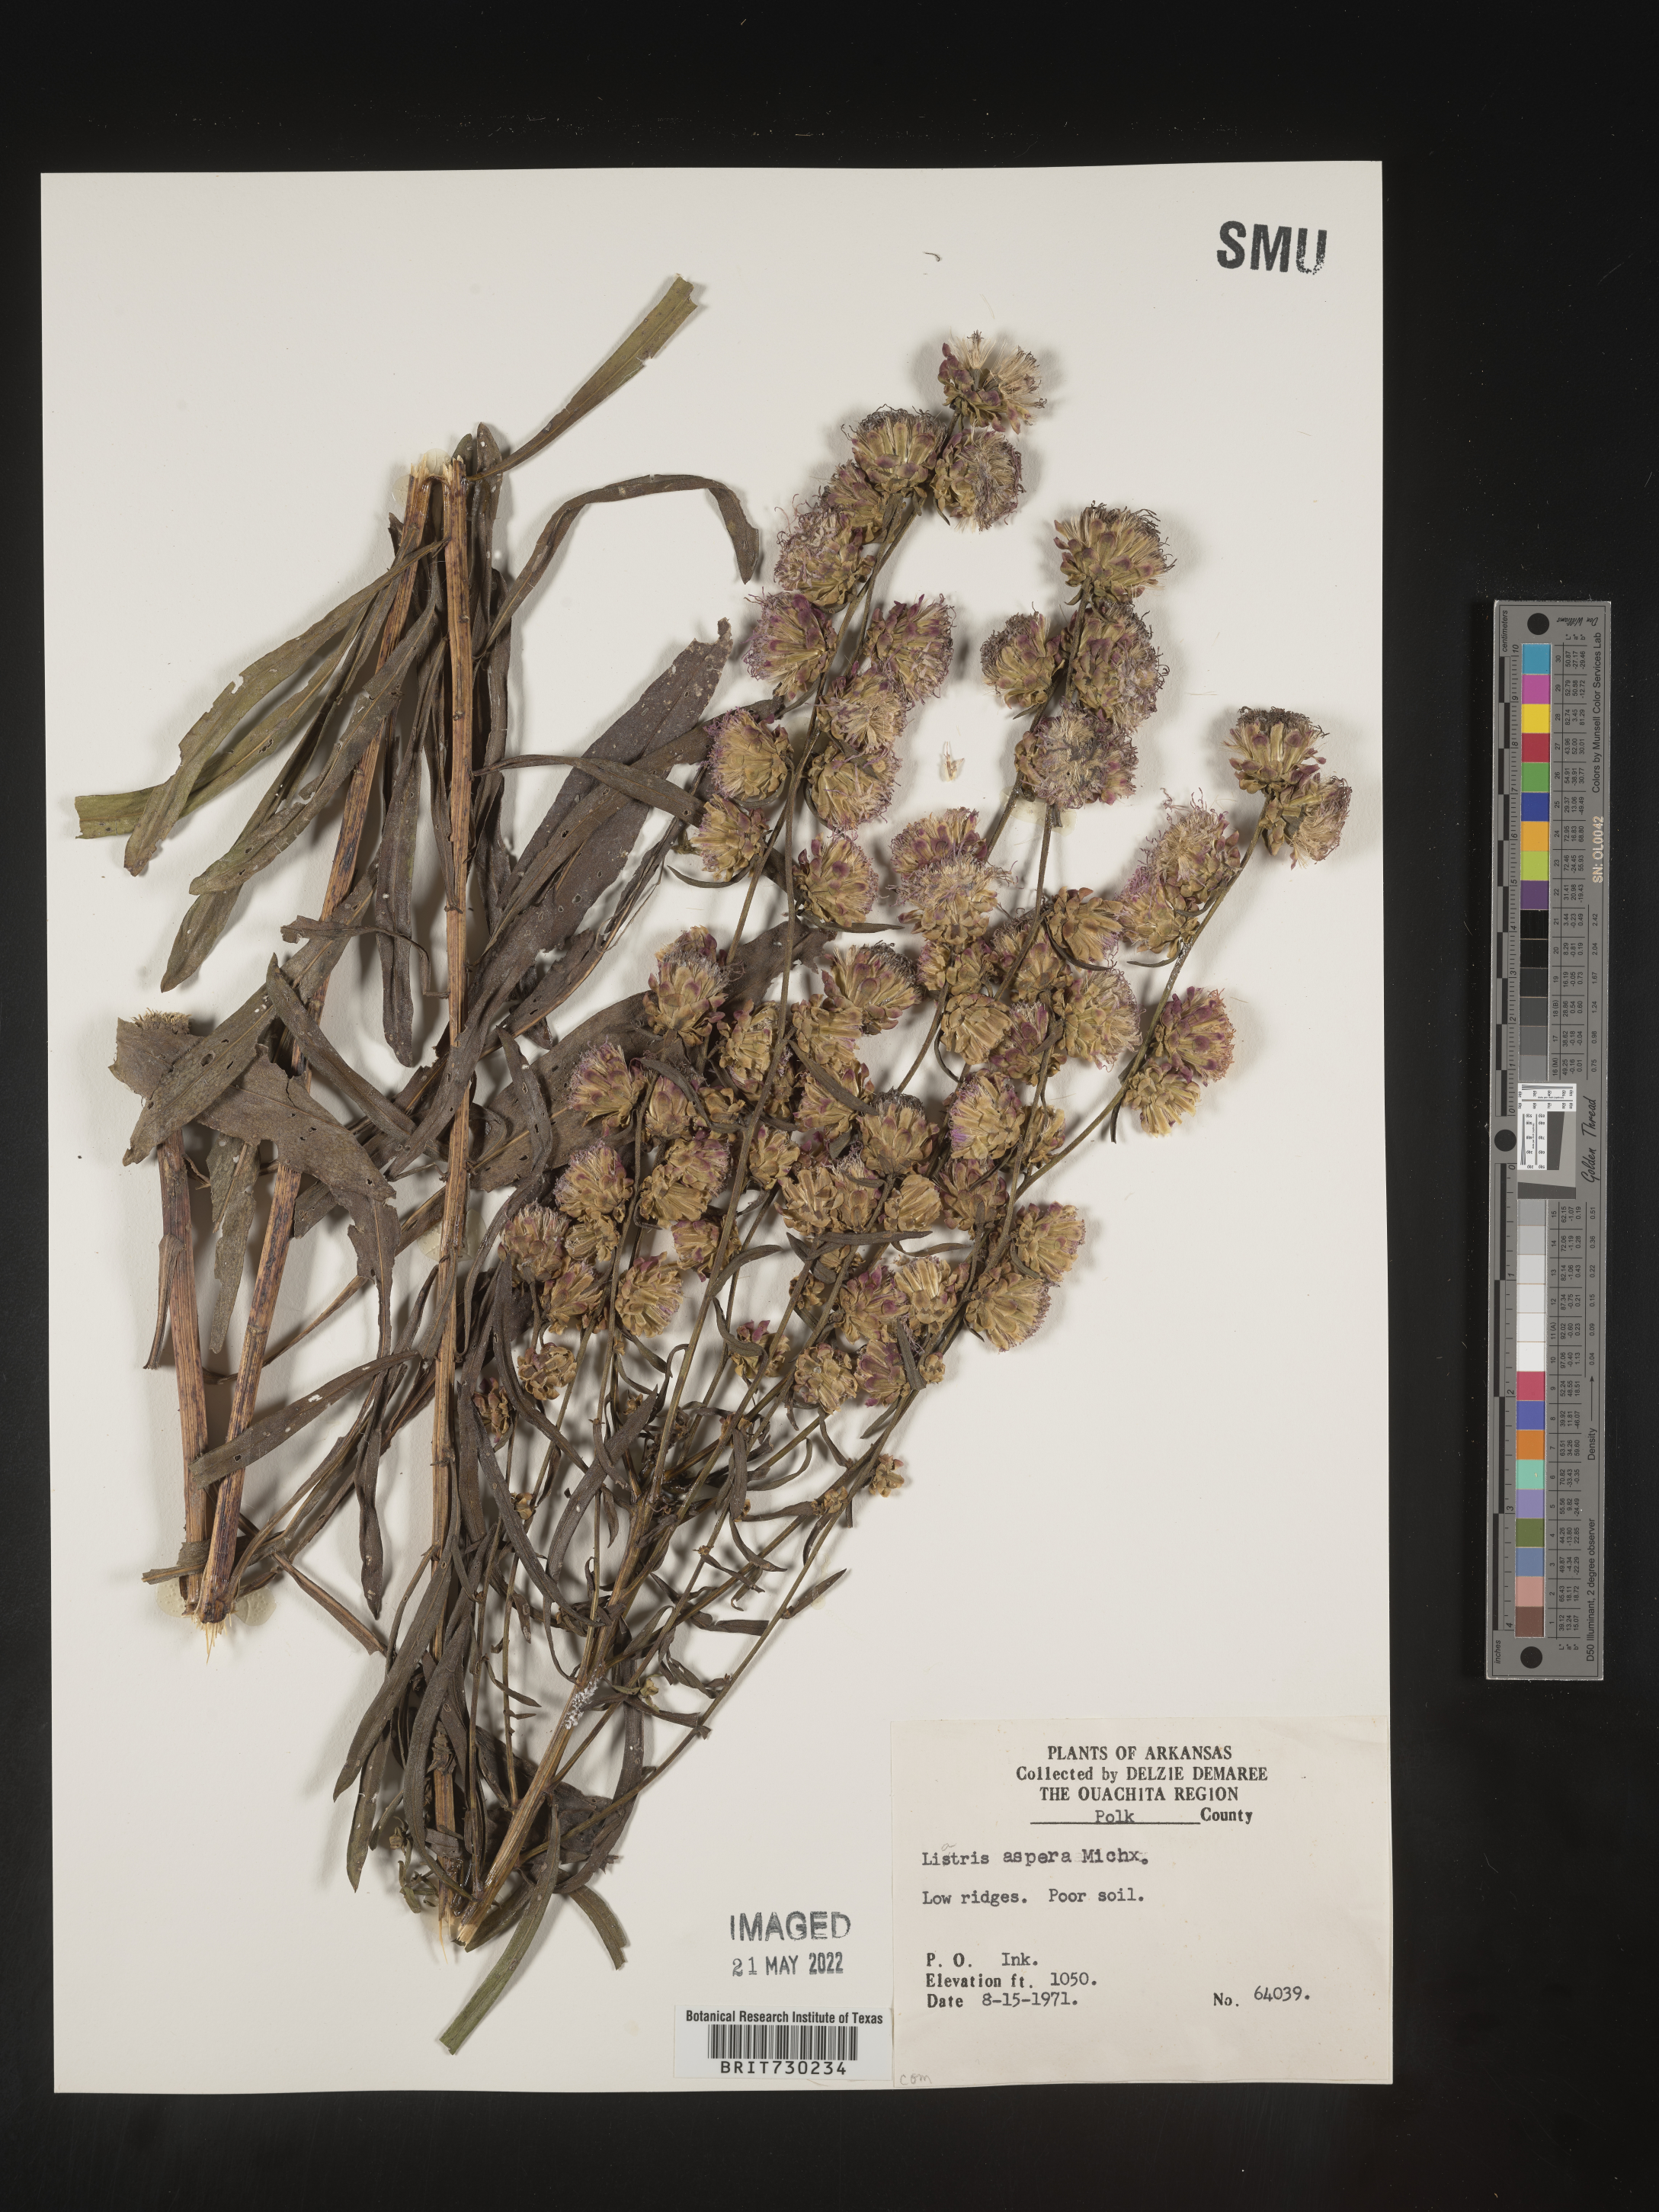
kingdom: Plantae
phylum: Tracheophyta
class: Magnoliopsida
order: Asterales
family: Asteraceae
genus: Liatris
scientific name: Liatris aspera
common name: Lacerate blazing-star
